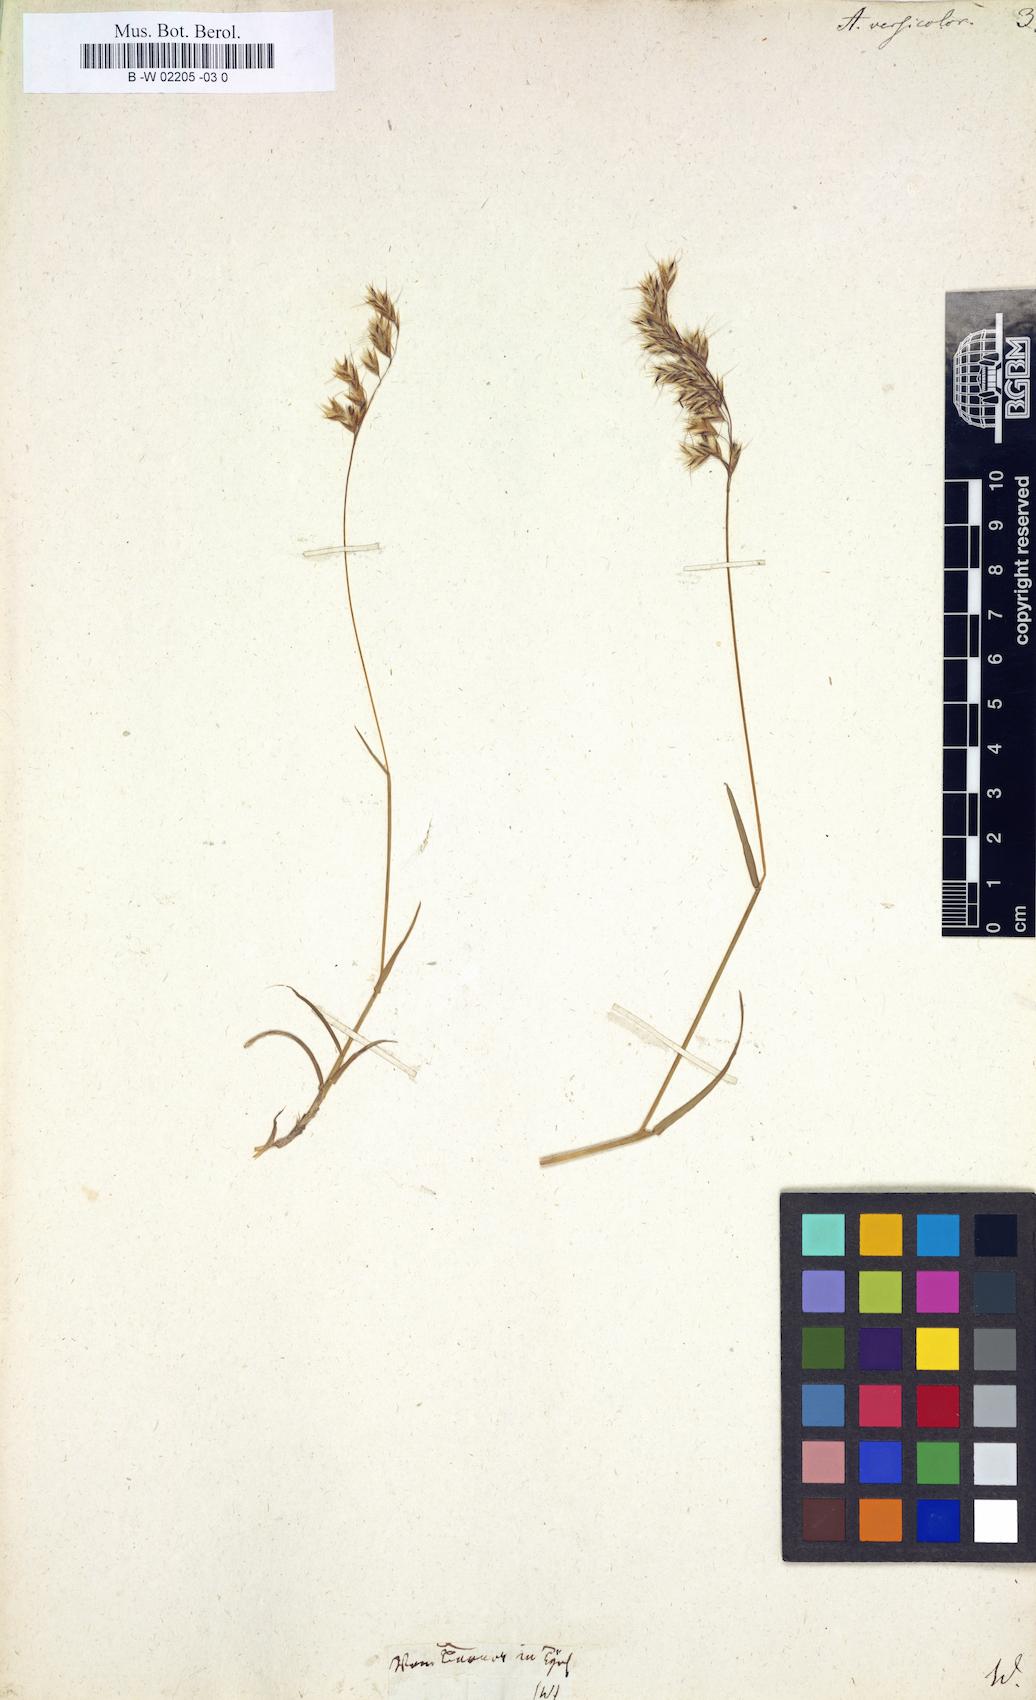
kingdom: Plantae
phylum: Tracheophyta
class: Liliopsida
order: Poales
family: Poaceae
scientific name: Poaceae
